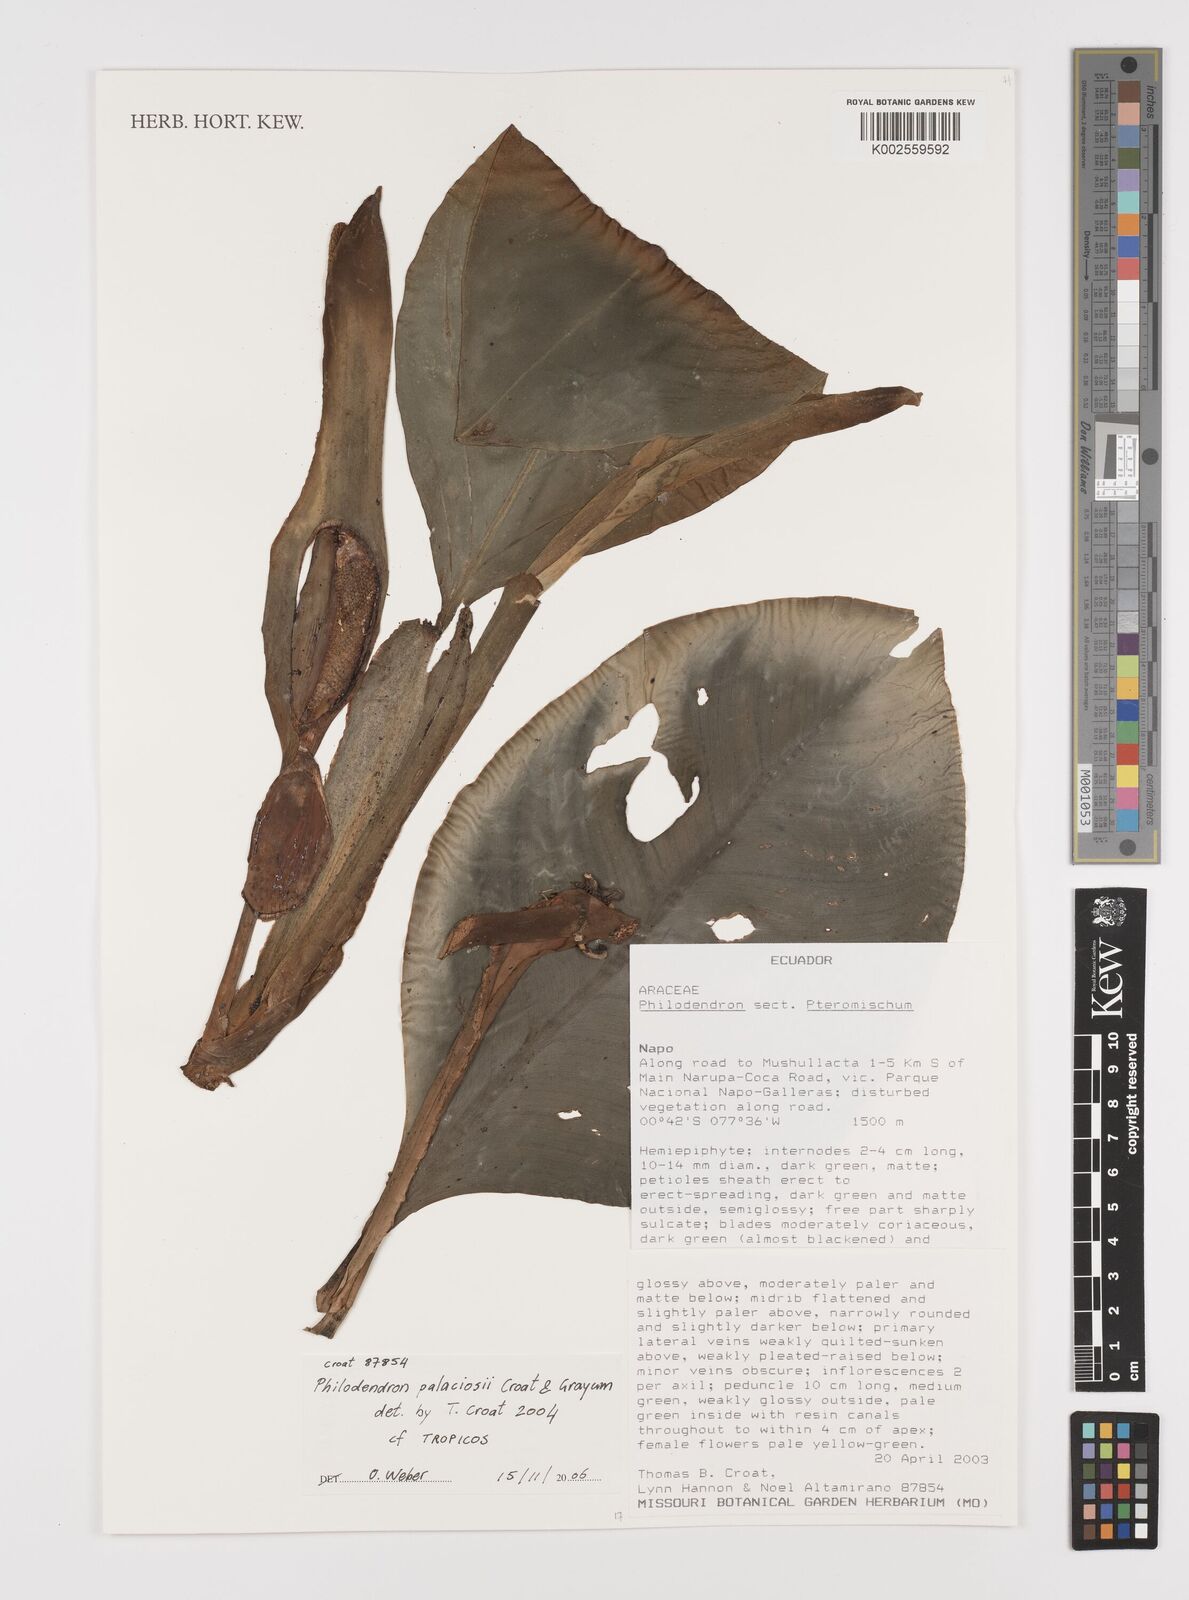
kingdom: Plantae
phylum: Tracheophyta
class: Liliopsida
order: Alismatales
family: Araceae
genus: Philodendron
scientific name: Philodendron palaciosii
